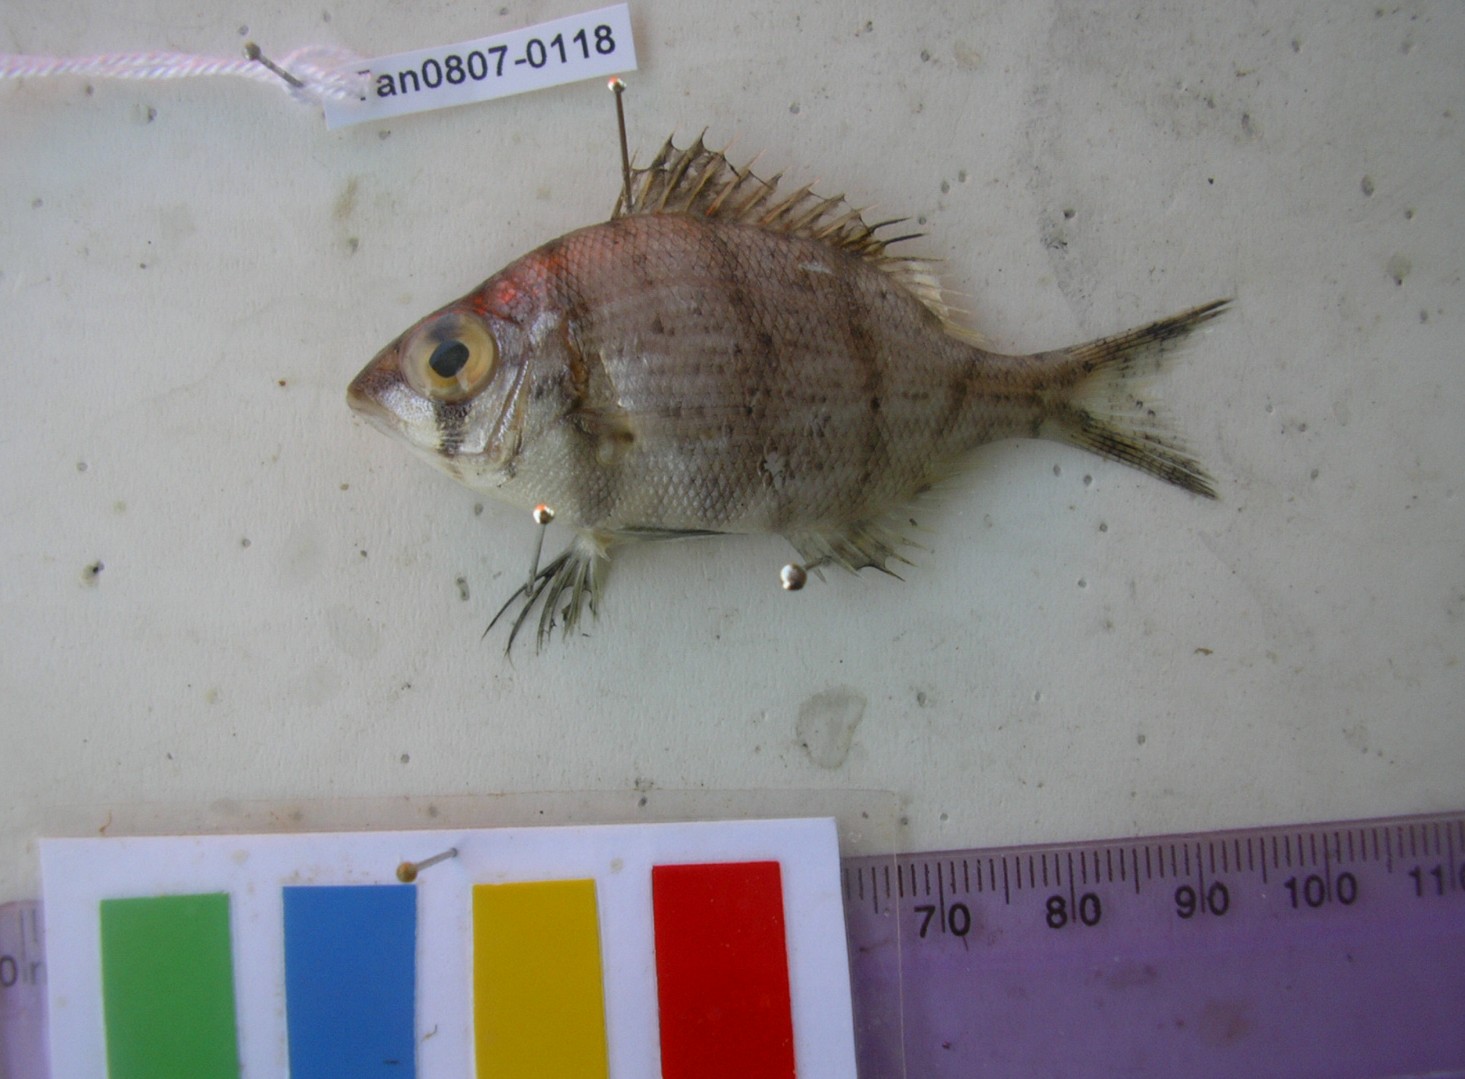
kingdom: Animalia
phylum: Chordata
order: Perciformes
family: Lethrinidae
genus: Gymnocranius
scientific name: Gymnocranius grandoculis
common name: Blue-lined large-eye bream
